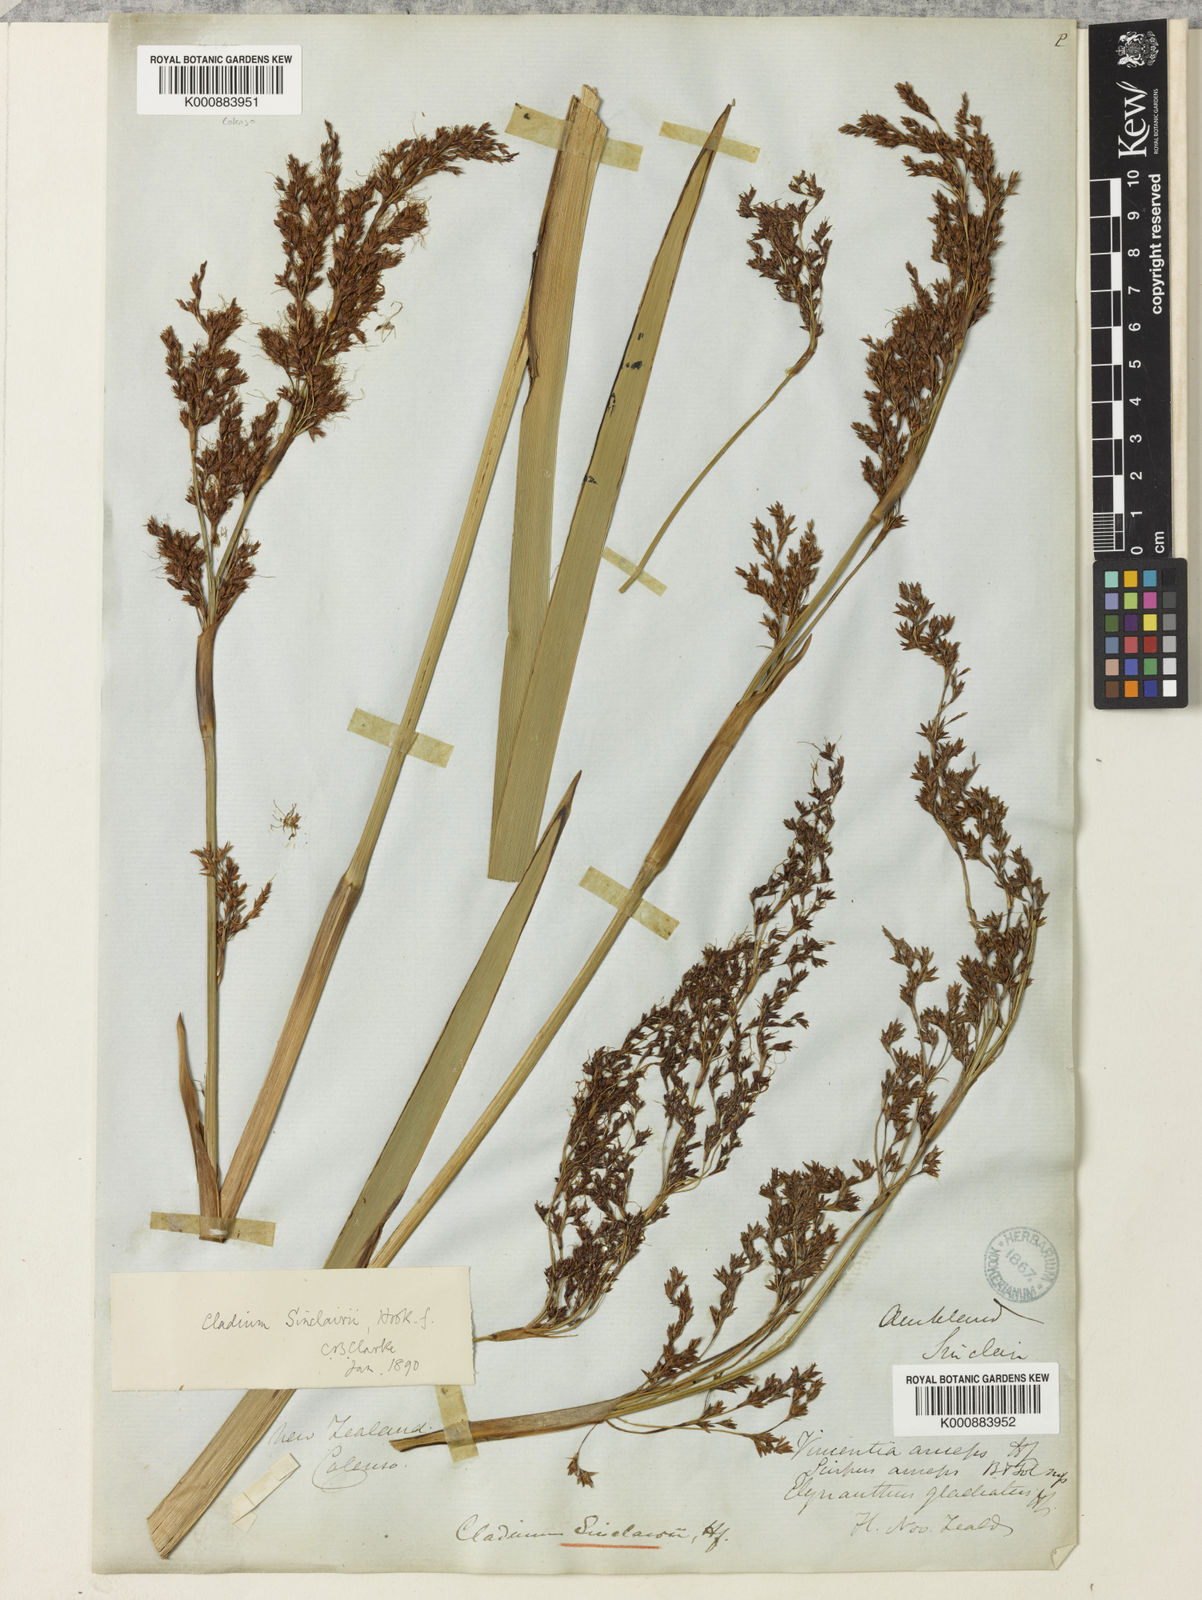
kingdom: Plantae
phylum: Tracheophyta
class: Liliopsida
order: Poales
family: Cyperaceae
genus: Machaerina
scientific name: Machaerina sinclairii
